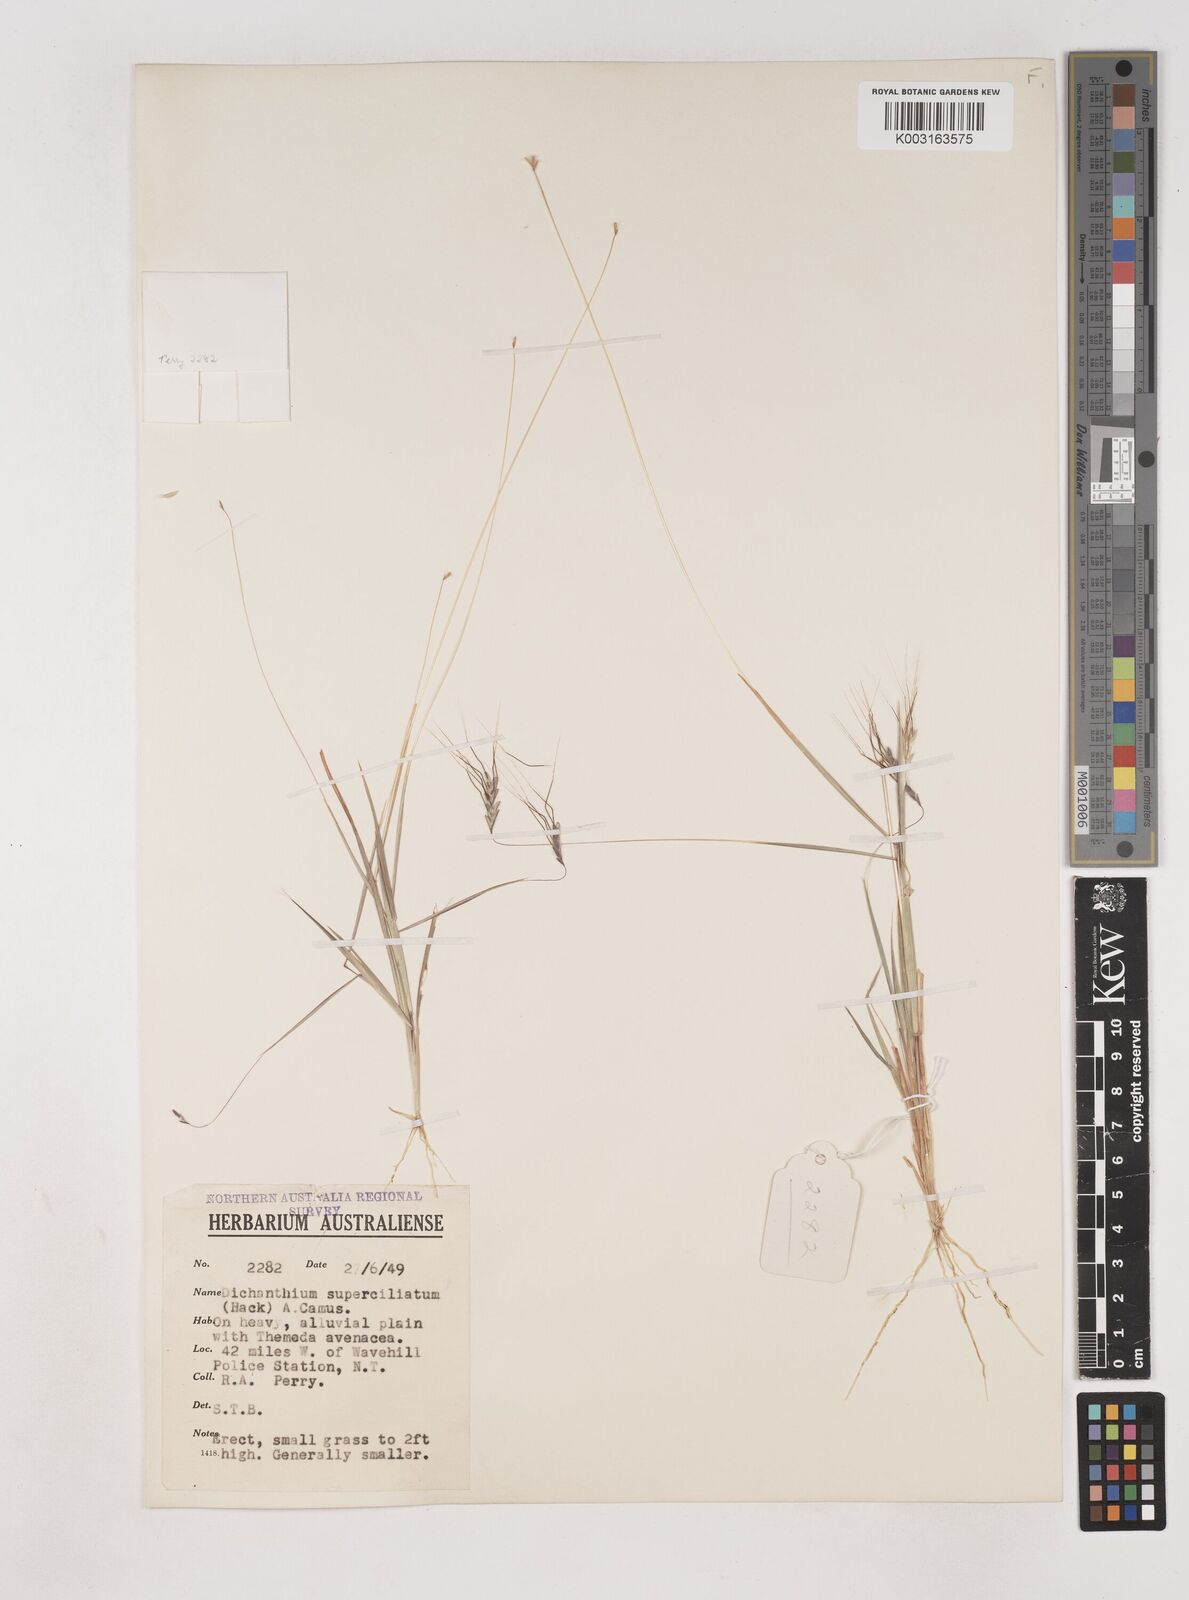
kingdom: Plantae
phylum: Tracheophyta
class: Liliopsida
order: Poales
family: Poaceae
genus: Dichanthium
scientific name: Dichanthium
